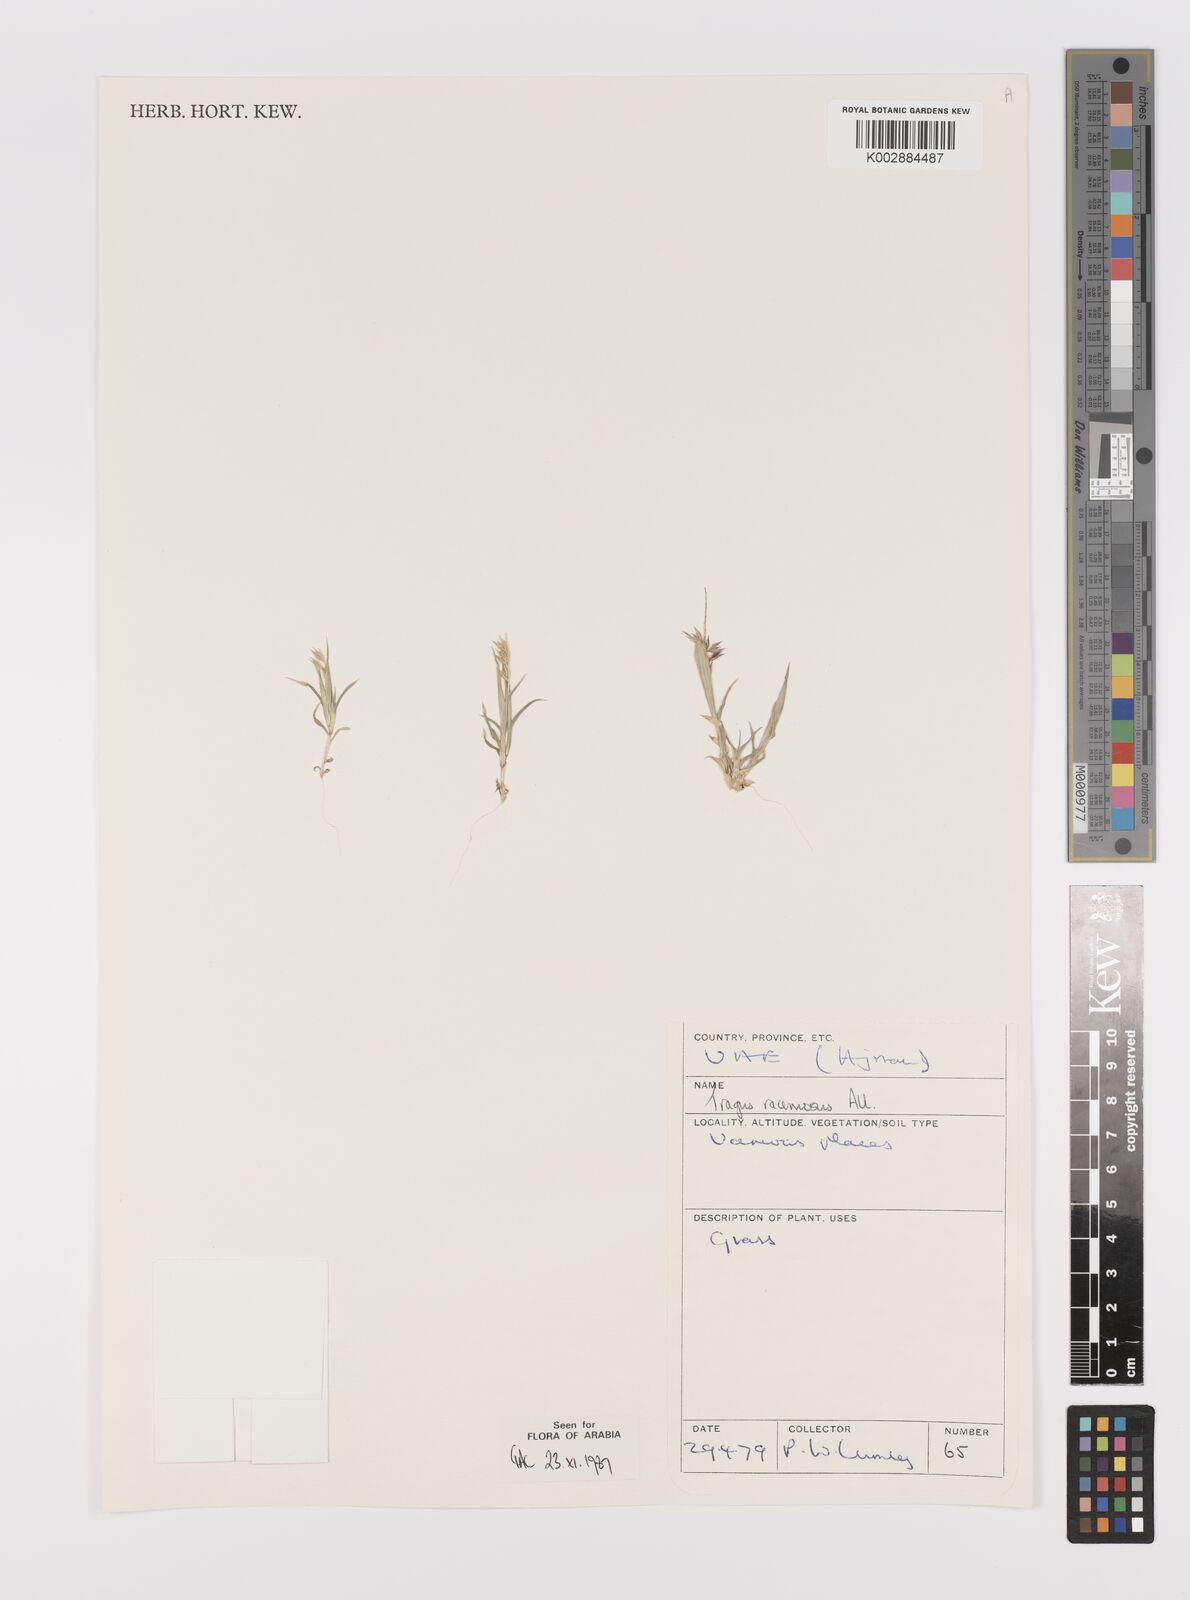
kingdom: Plantae
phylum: Tracheophyta
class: Liliopsida
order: Poales
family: Poaceae
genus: Tragus
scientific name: Tragus racemosus
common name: European bur-grass
